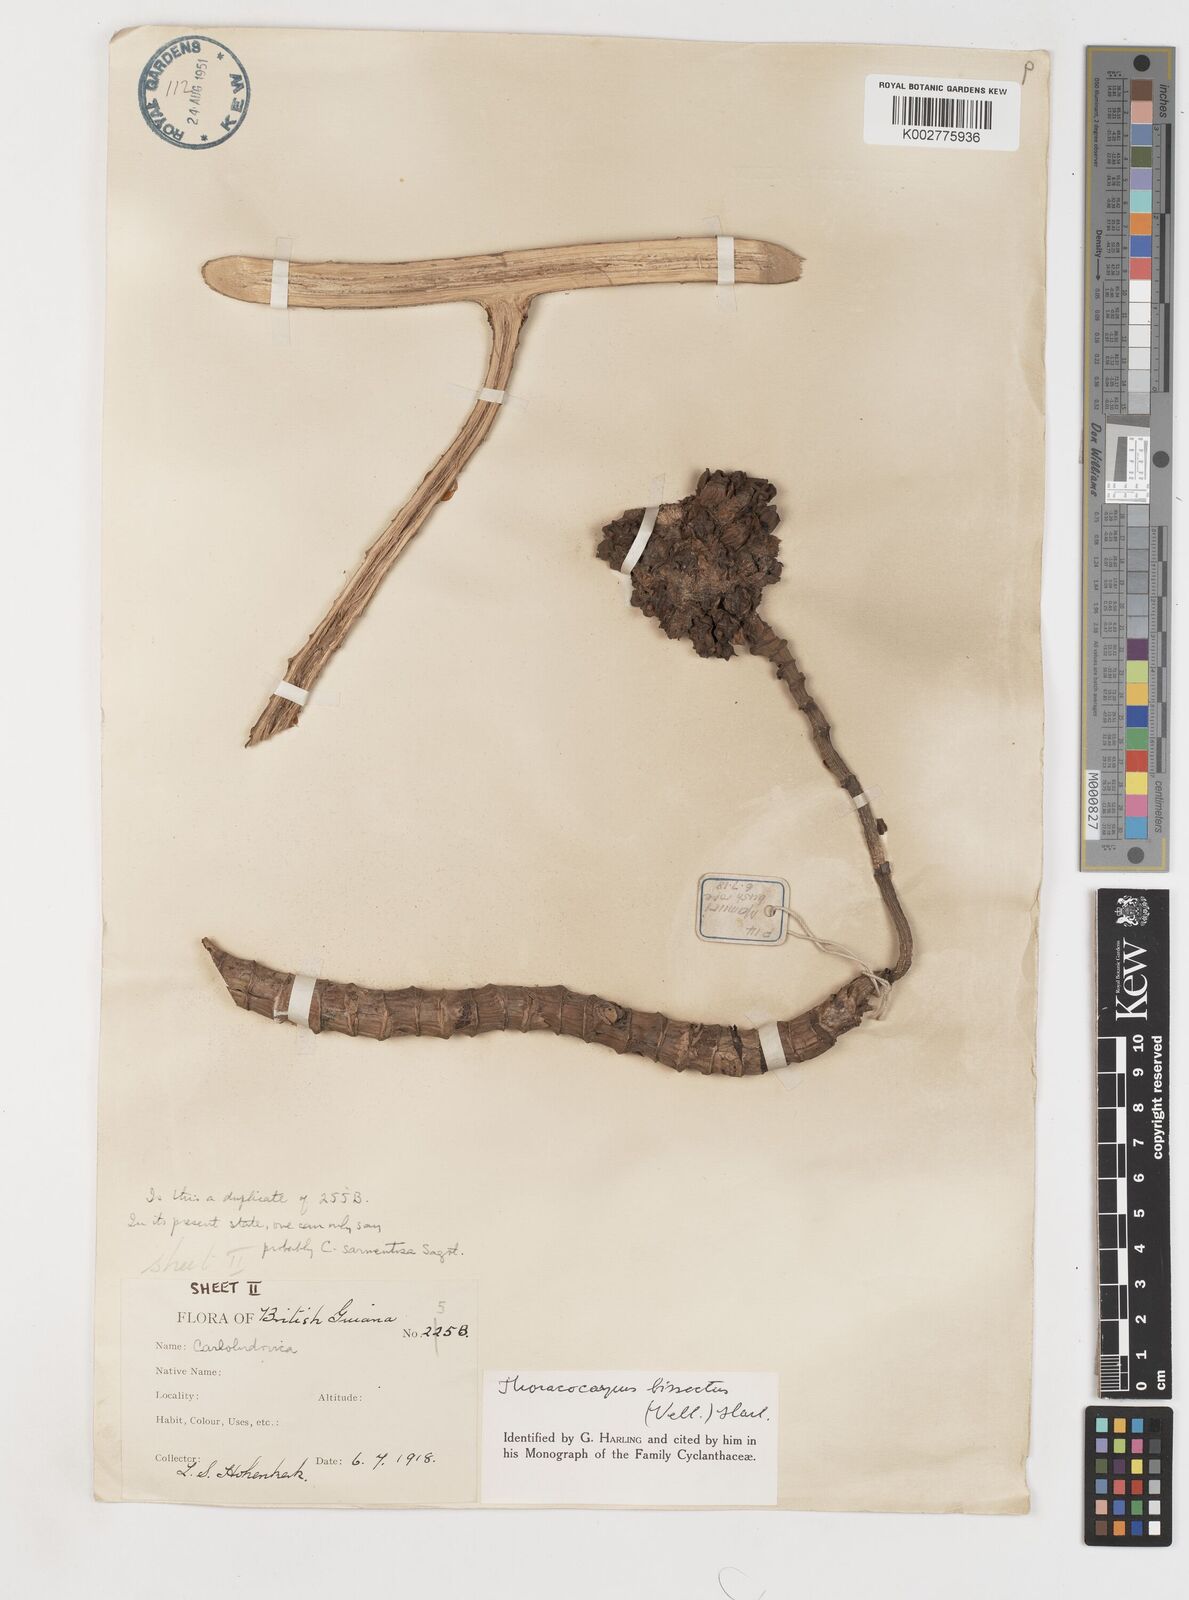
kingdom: Plantae
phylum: Tracheophyta
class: Liliopsida
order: Pandanales
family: Cyclanthaceae
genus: Thoracocarpus
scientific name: Thoracocarpus bissectus
